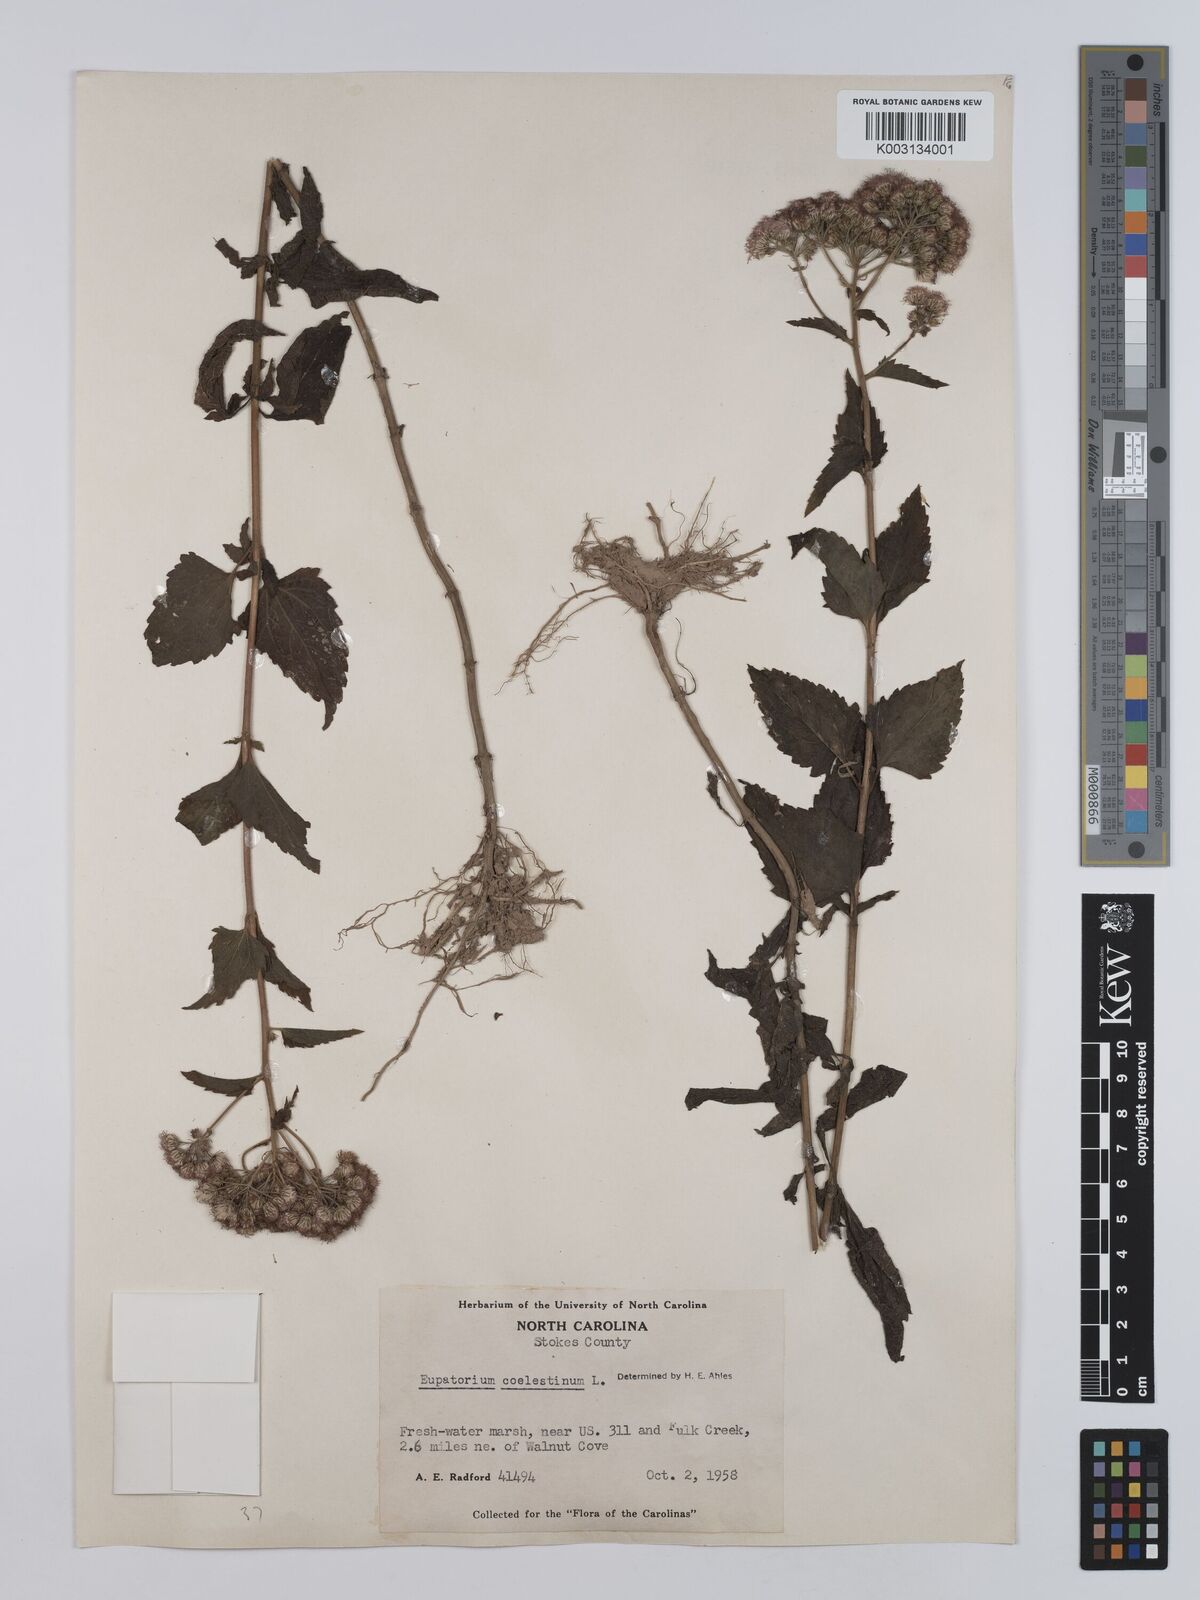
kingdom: Plantae
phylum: Tracheophyta
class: Magnoliopsida
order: Asterales
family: Asteraceae
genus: Conoclinium
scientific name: Conoclinium coelestinum
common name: Blue mistflower
